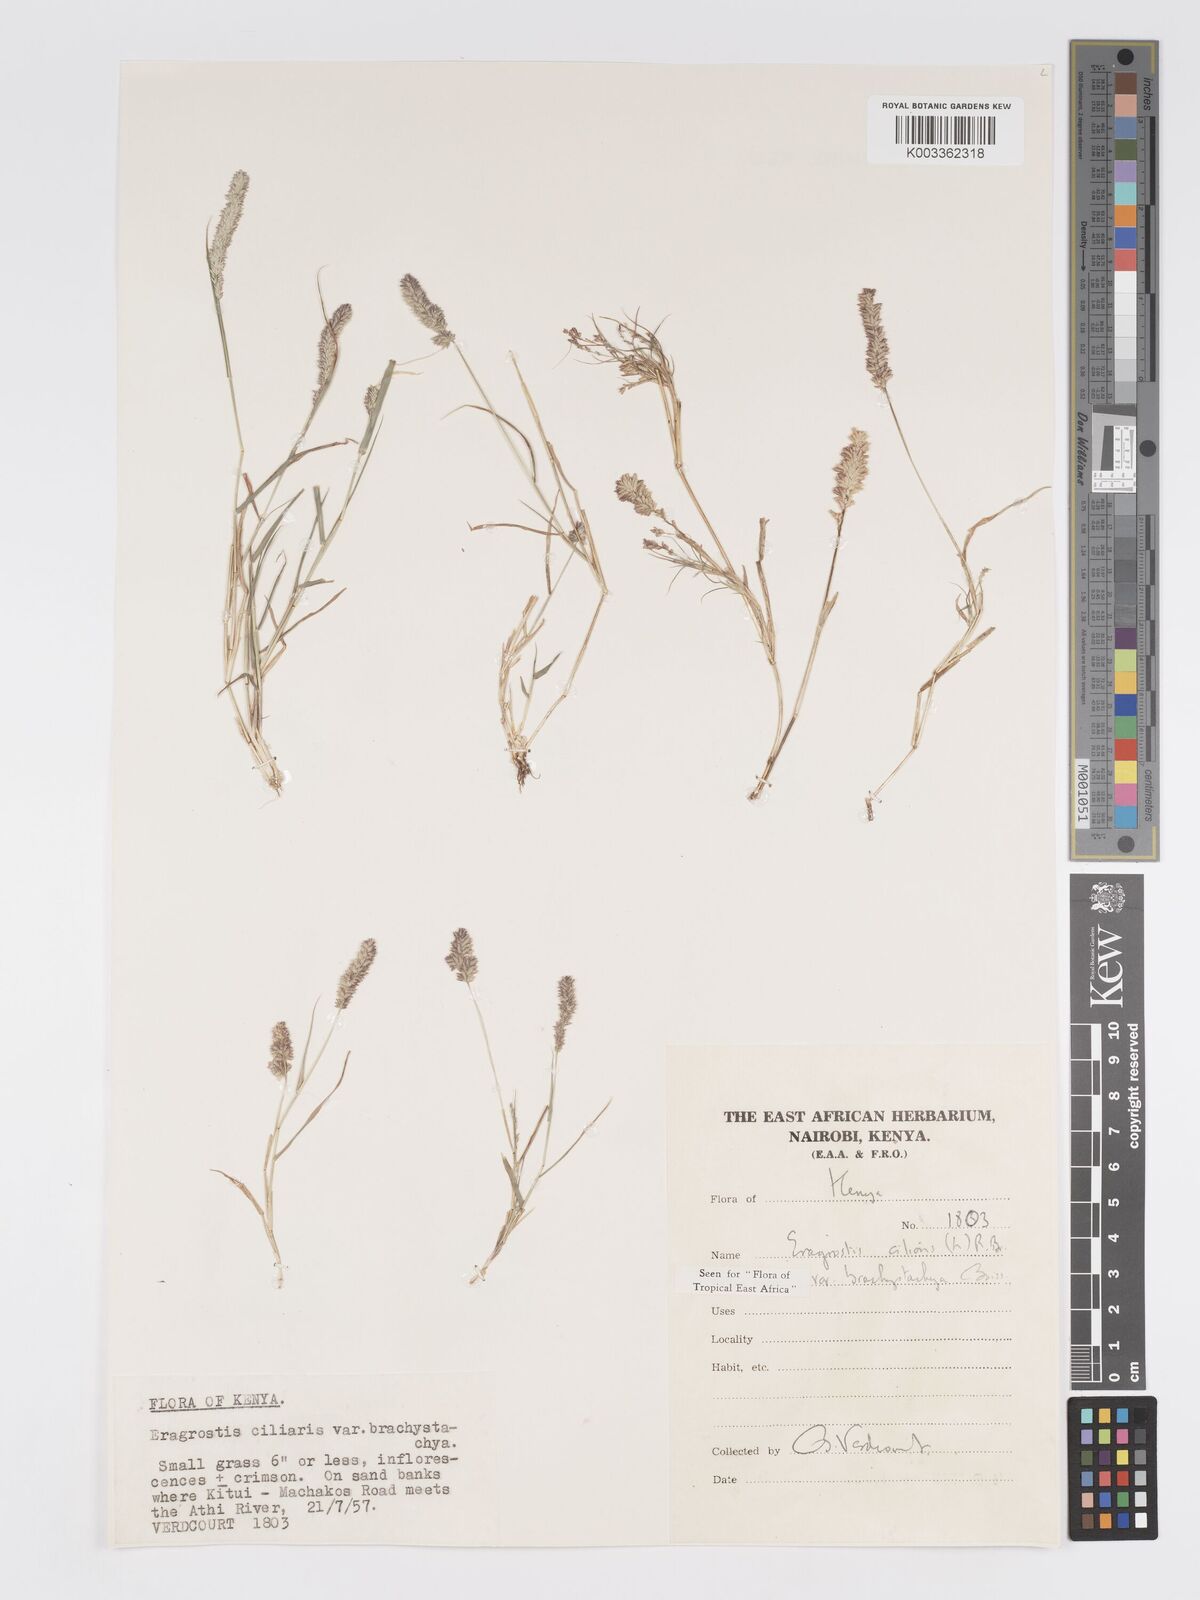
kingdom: Plantae
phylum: Tracheophyta
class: Liliopsida
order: Poales
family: Poaceae
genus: Eragrostis
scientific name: Eragrostis ciliaris
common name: Gophertail lovegrass
